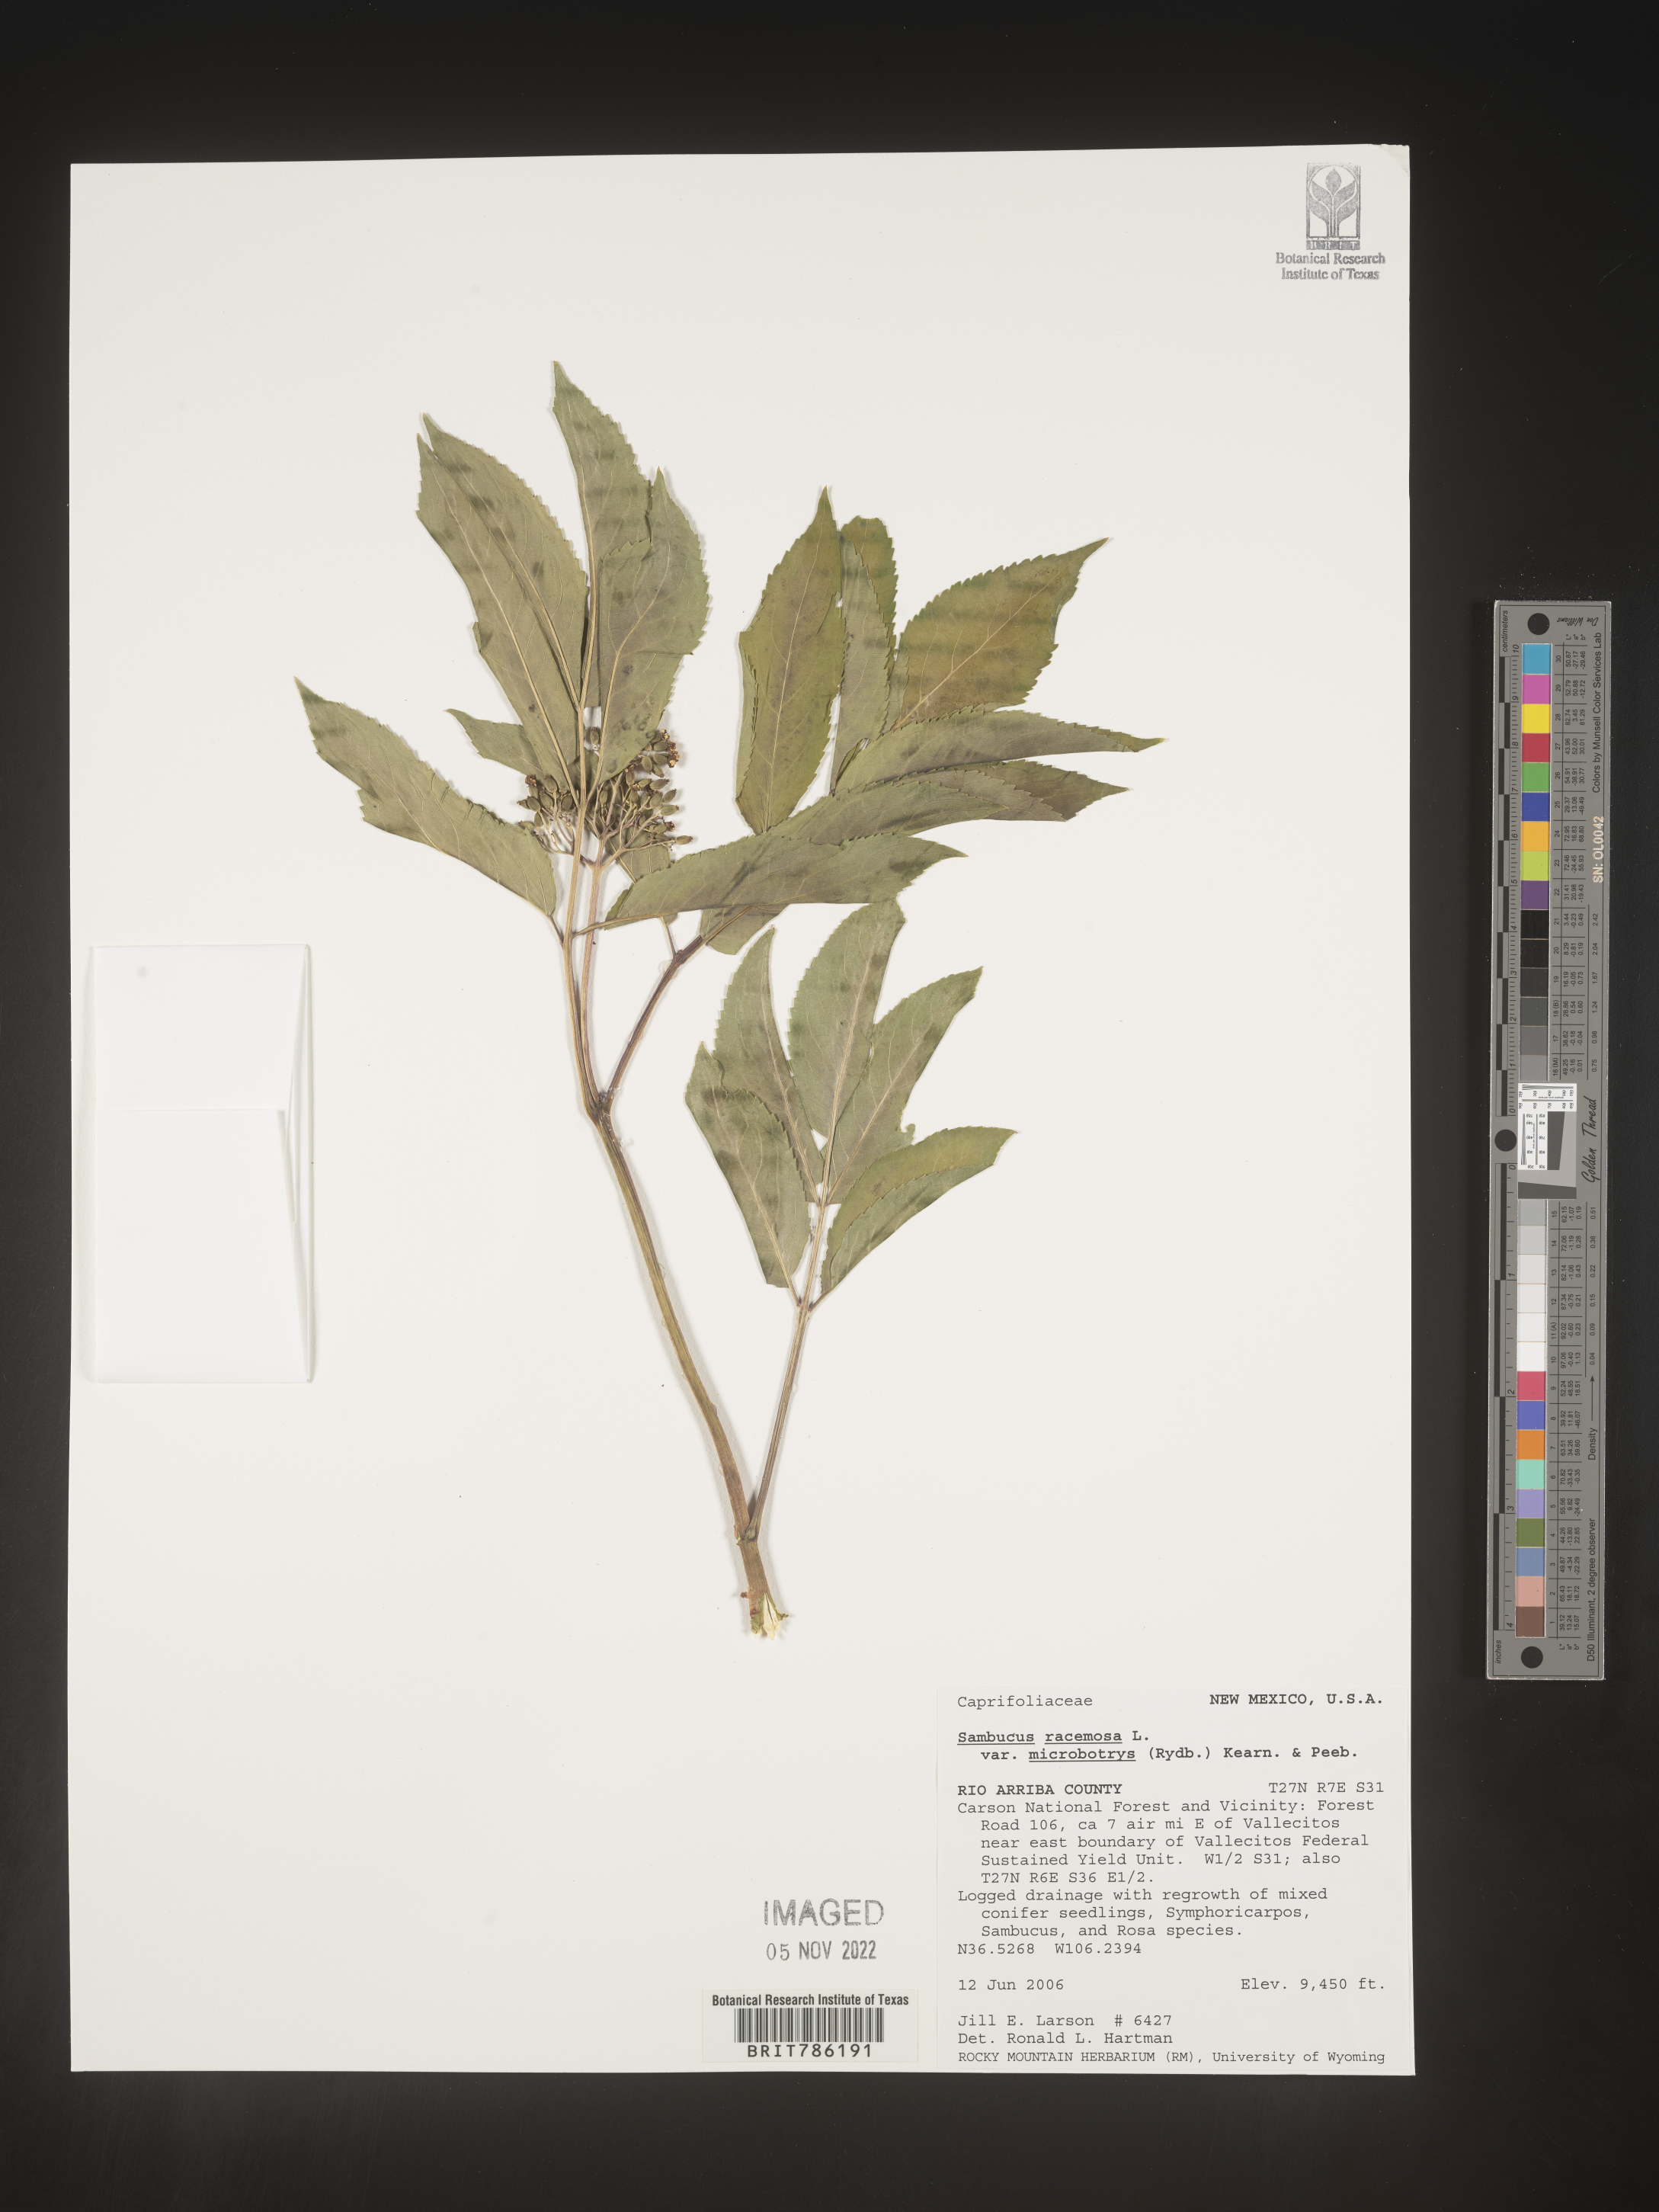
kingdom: Plantae
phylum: Tracheophyta
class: Magnoliopsida
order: Dipsacales
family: Viburnaceae
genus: Sambucus
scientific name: Sambucus
